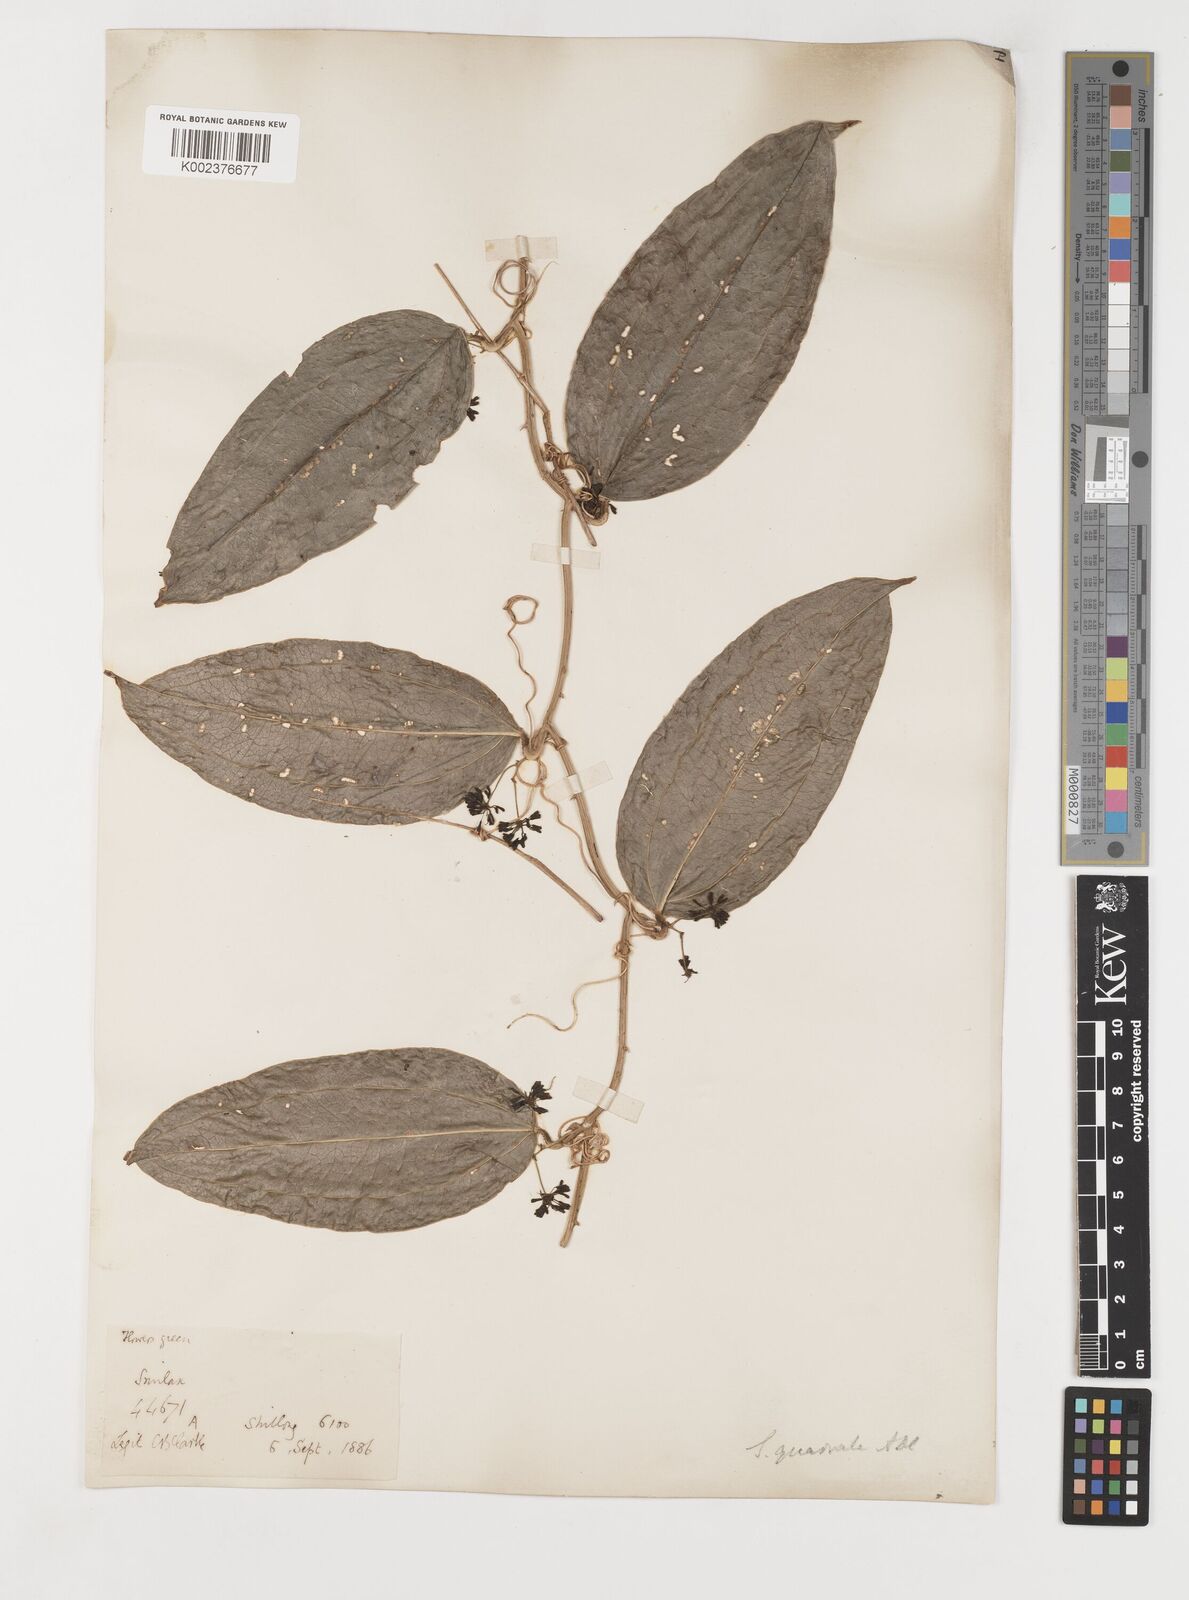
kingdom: Plantae
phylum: Tracheophyta
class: Liliopsida
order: Liliales
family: Smilacaceae
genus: Smilax
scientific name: Smilax quadrata
